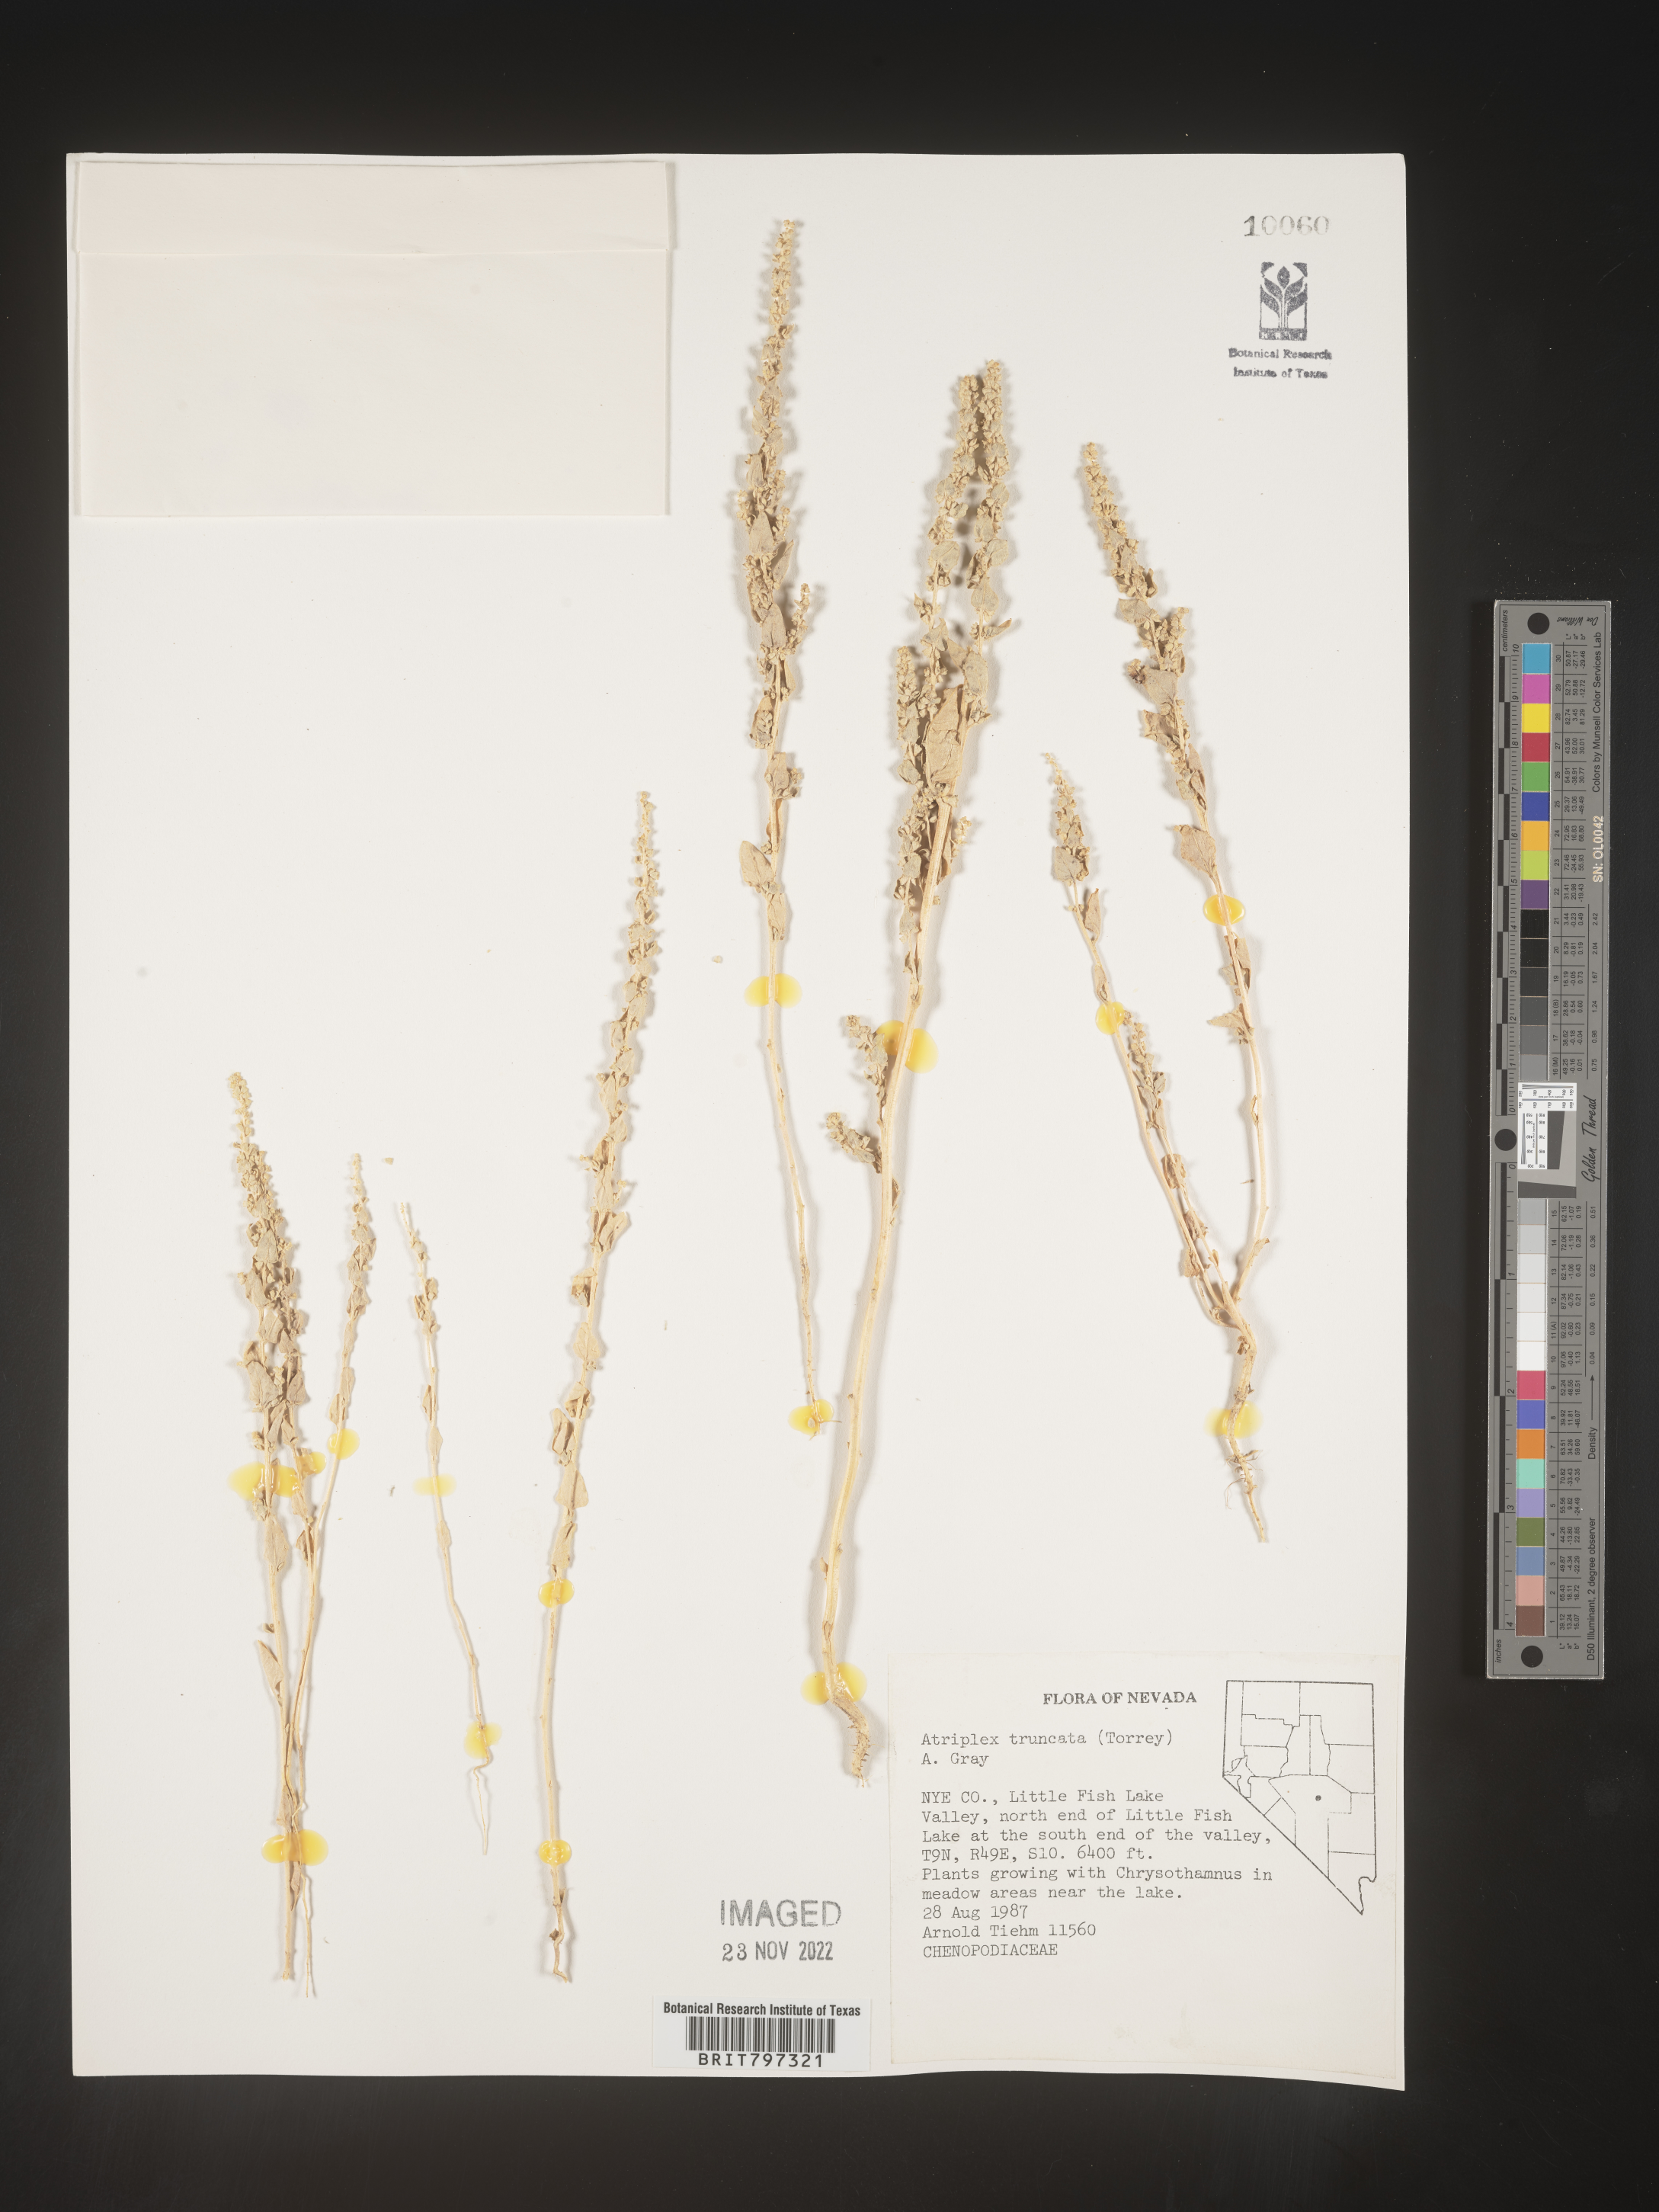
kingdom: Plantae
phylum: Tracheophyta
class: Magnoliopsida
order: Caryophyllales
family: Amaranthaceae
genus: Atriplex
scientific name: Atriplex
